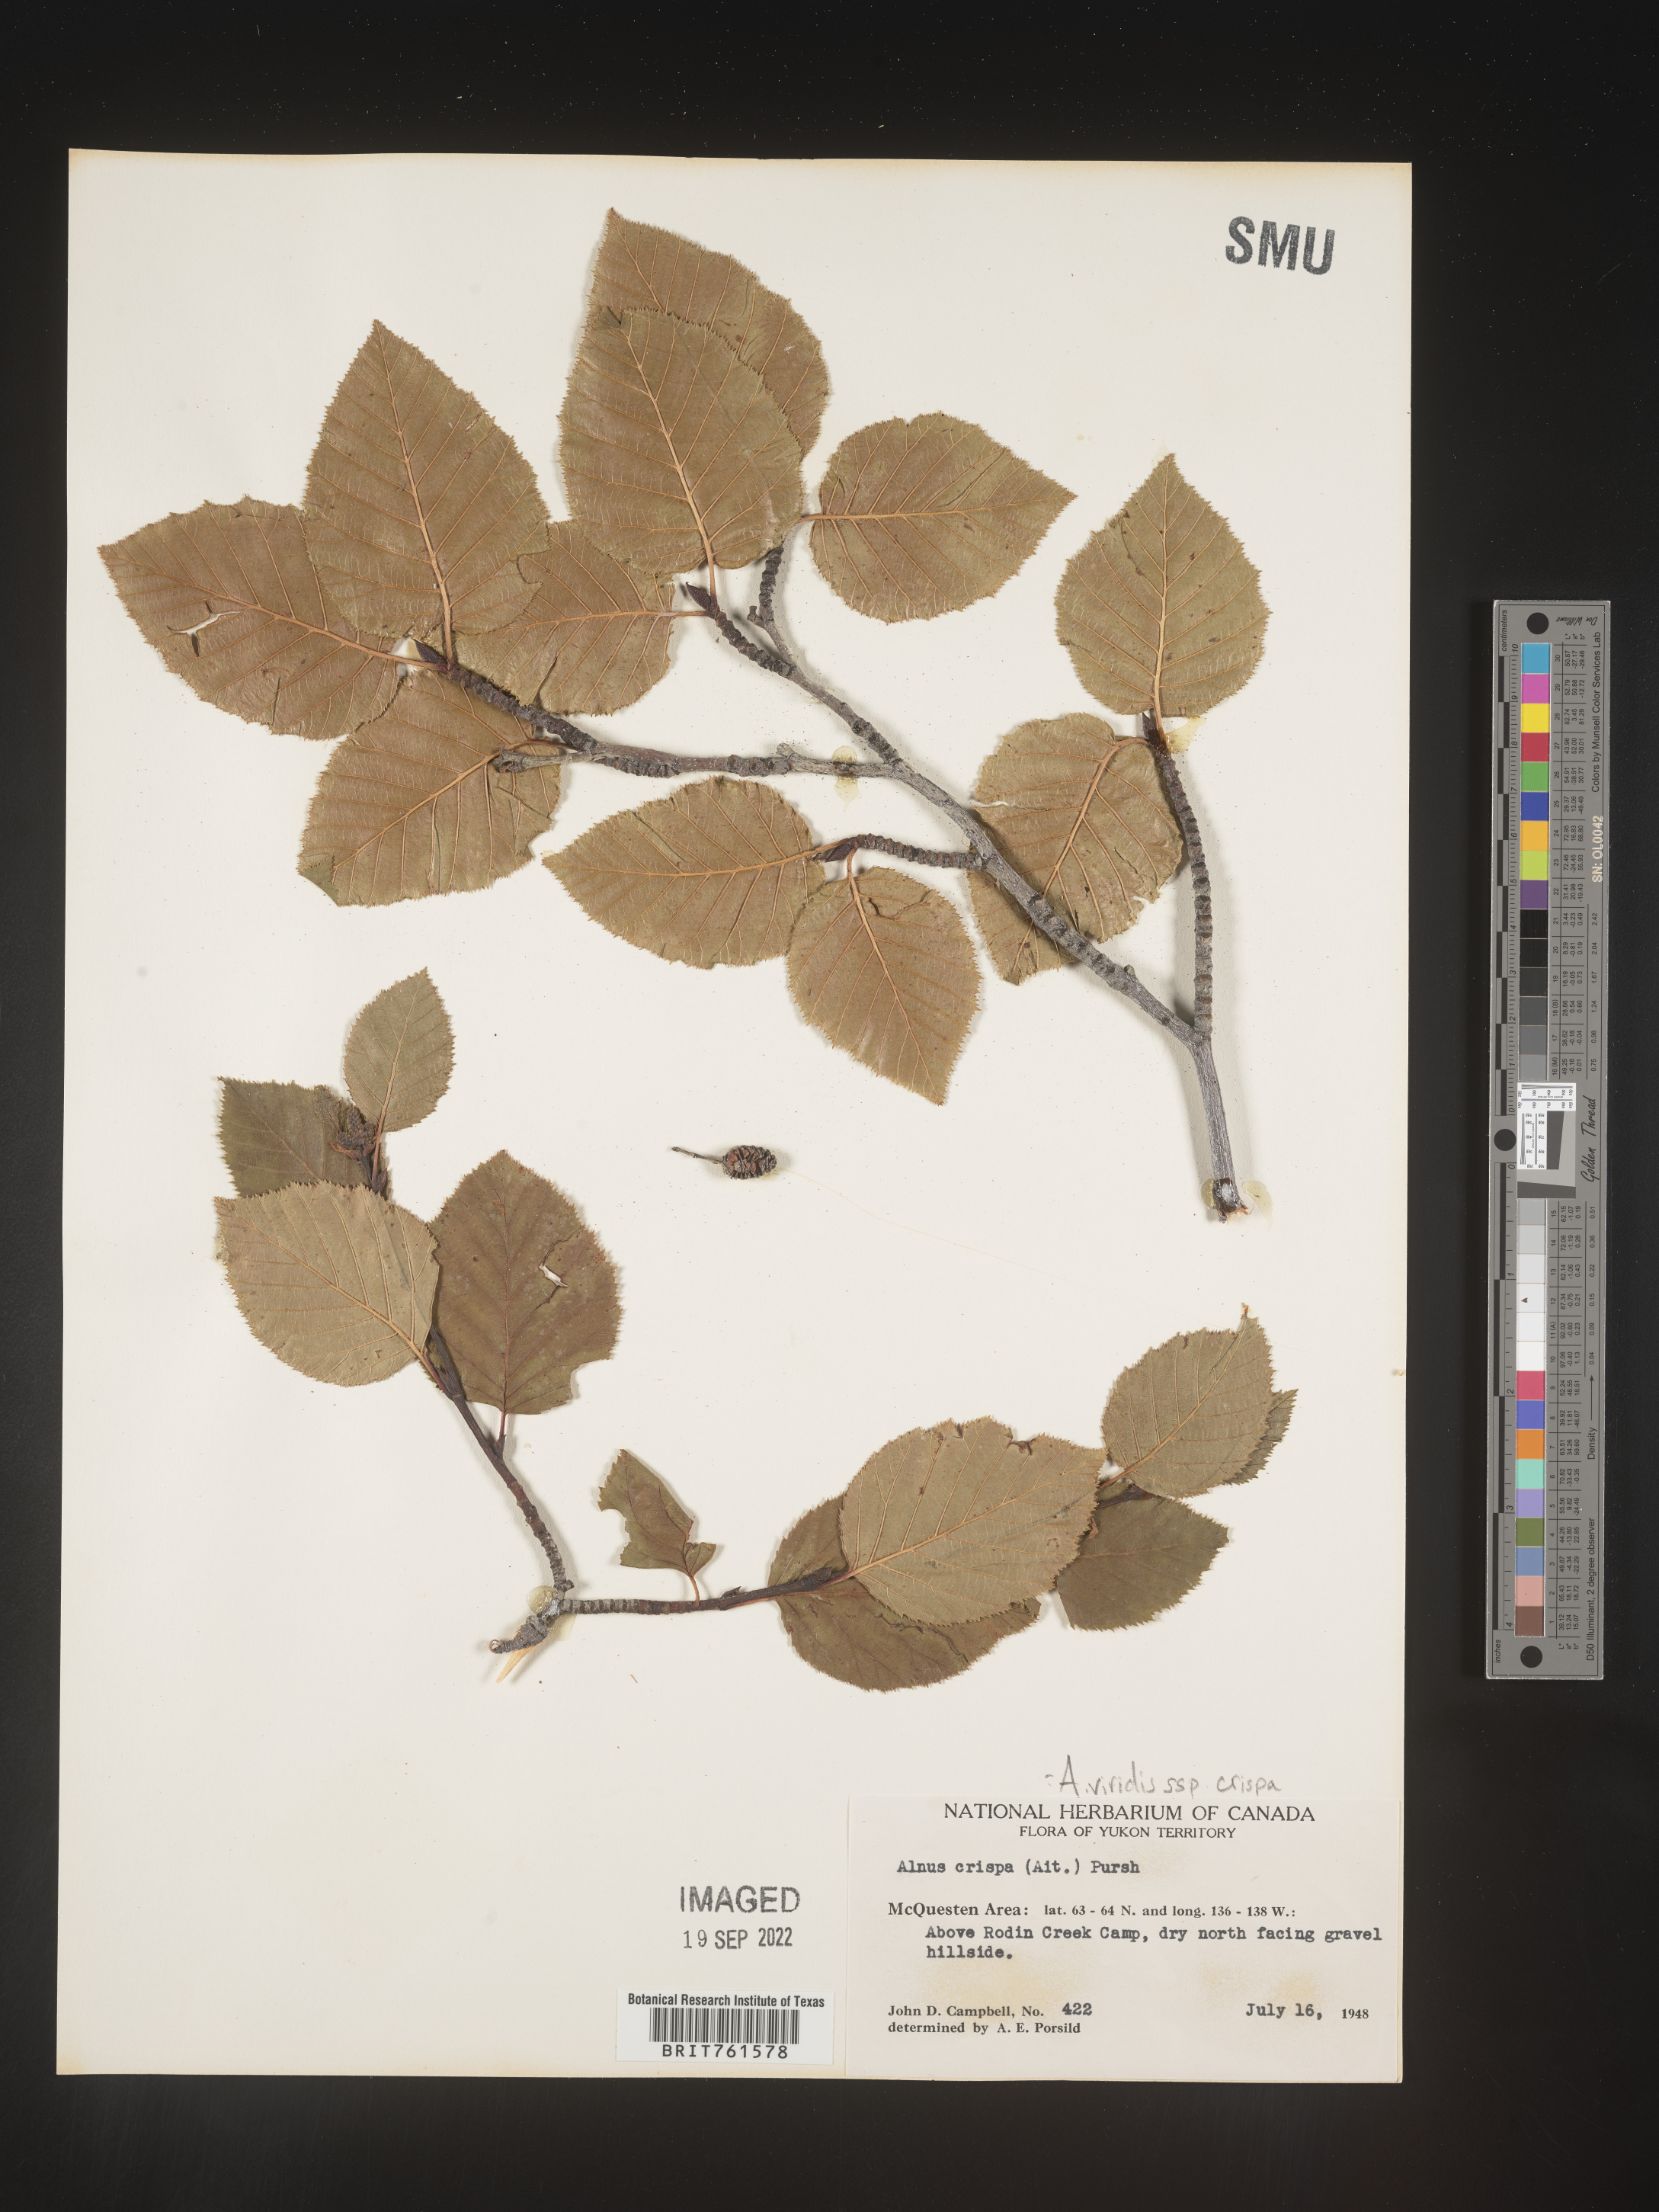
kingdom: Plantae
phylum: Tracheophyta
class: Magnoliopsida
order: Fagales
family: Betulaceae
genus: Alnus
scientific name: Alnus alnobetula
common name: Green alder
